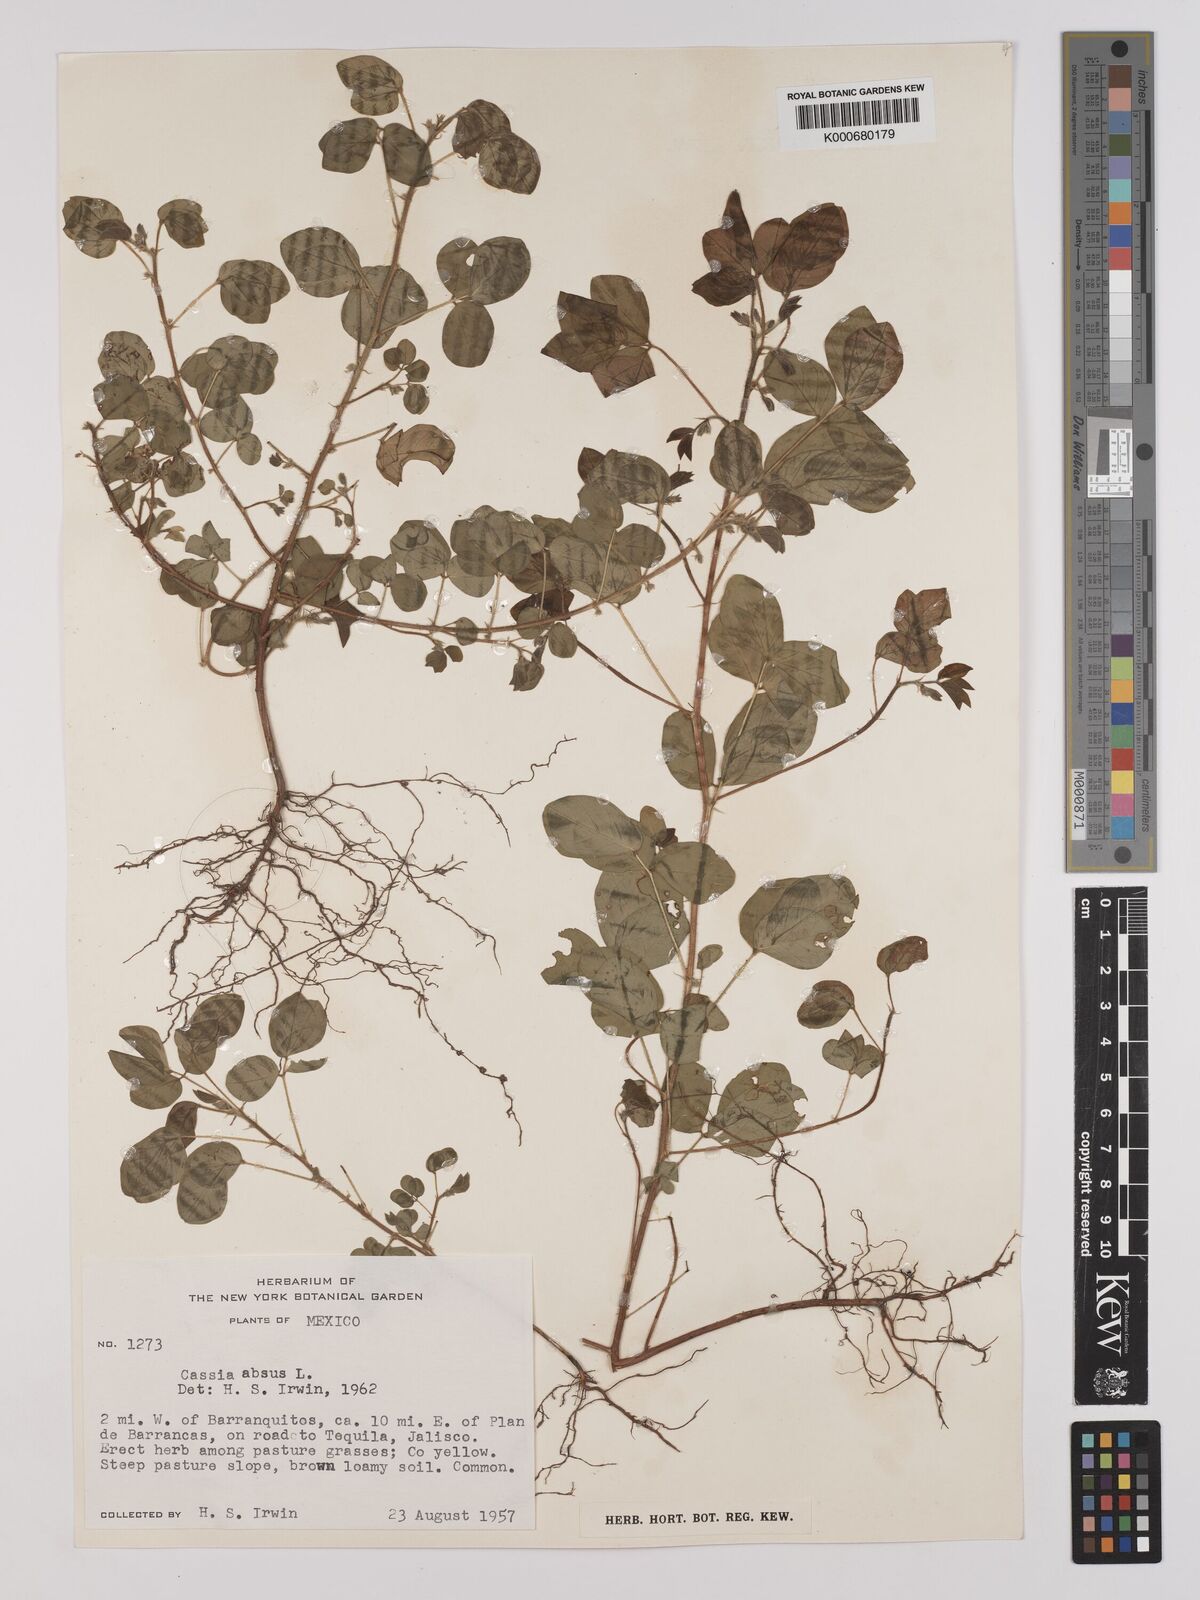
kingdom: Plantae
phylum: Tracheophyta
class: Magnoliopsida
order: Fabales
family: Fabaceae
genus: Chamaecrista
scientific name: Chamaecrista
